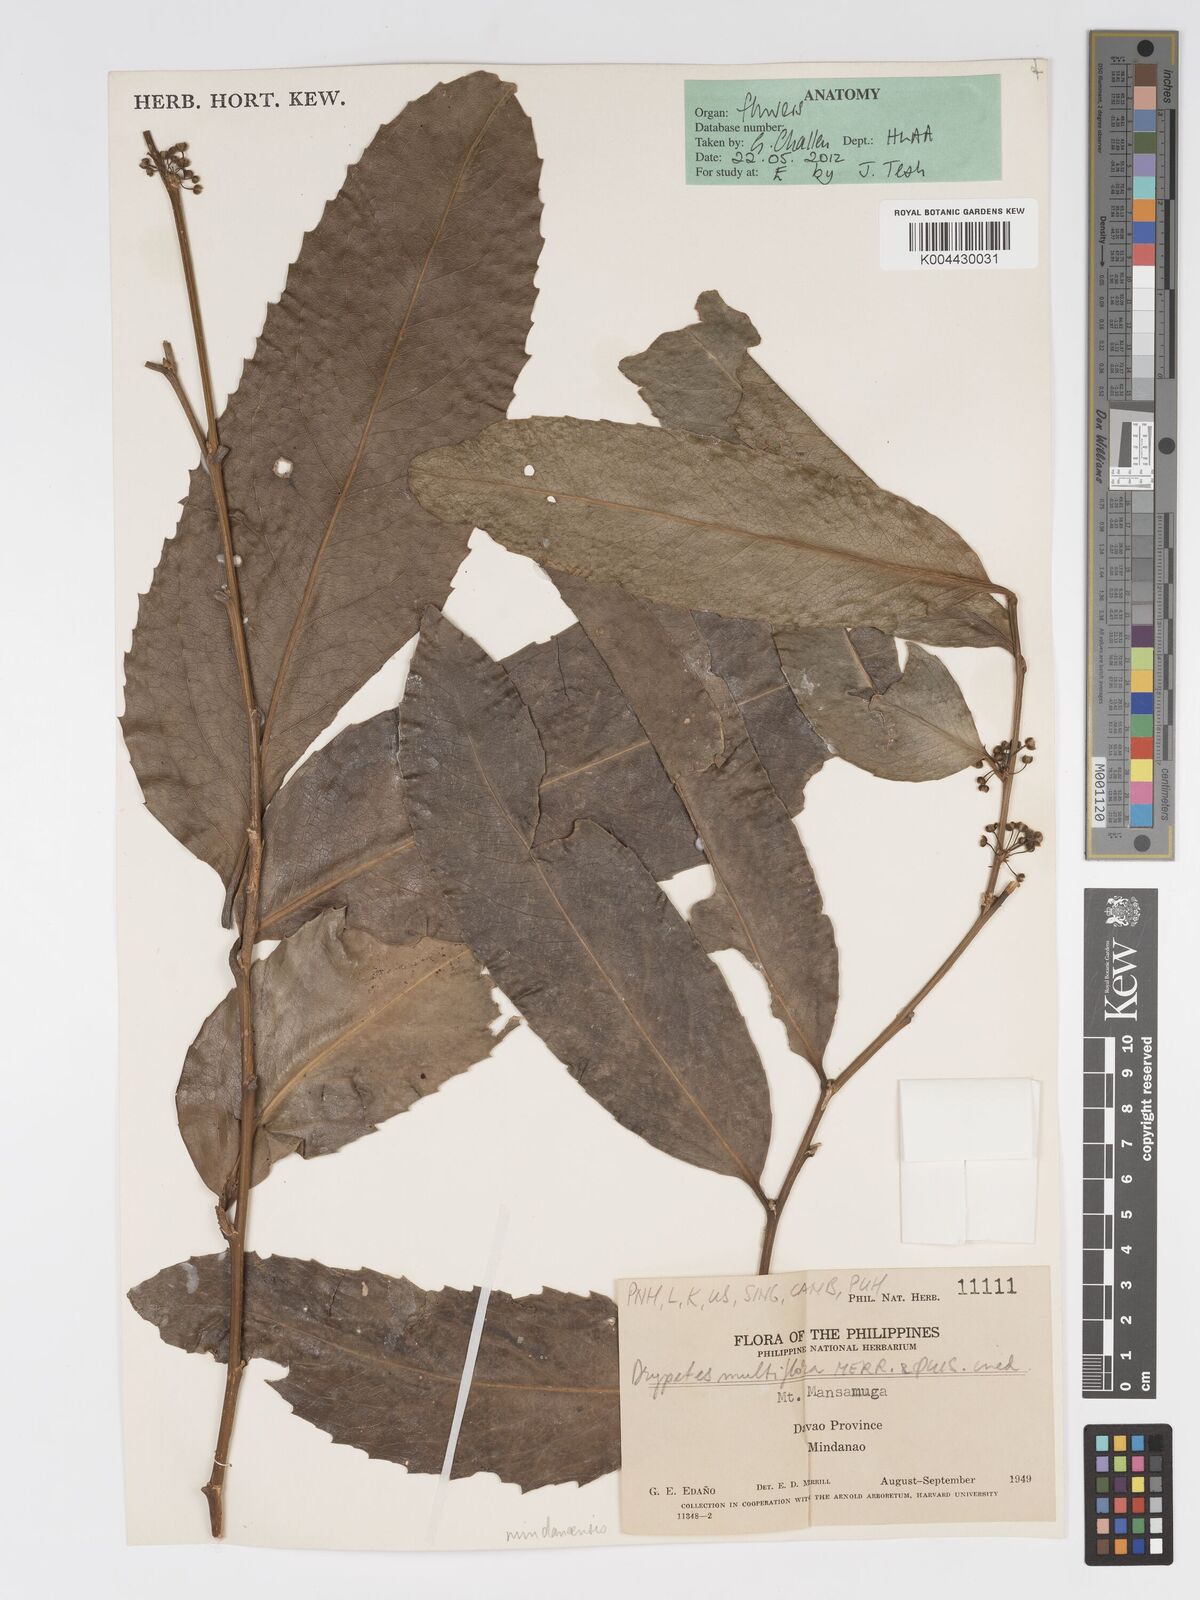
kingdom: Plantae
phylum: Tracheophyta
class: Magnoliopsida
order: Malpighiales
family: Putranjivaceae
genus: Drypetes
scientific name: Drypetes sibuyanensis
